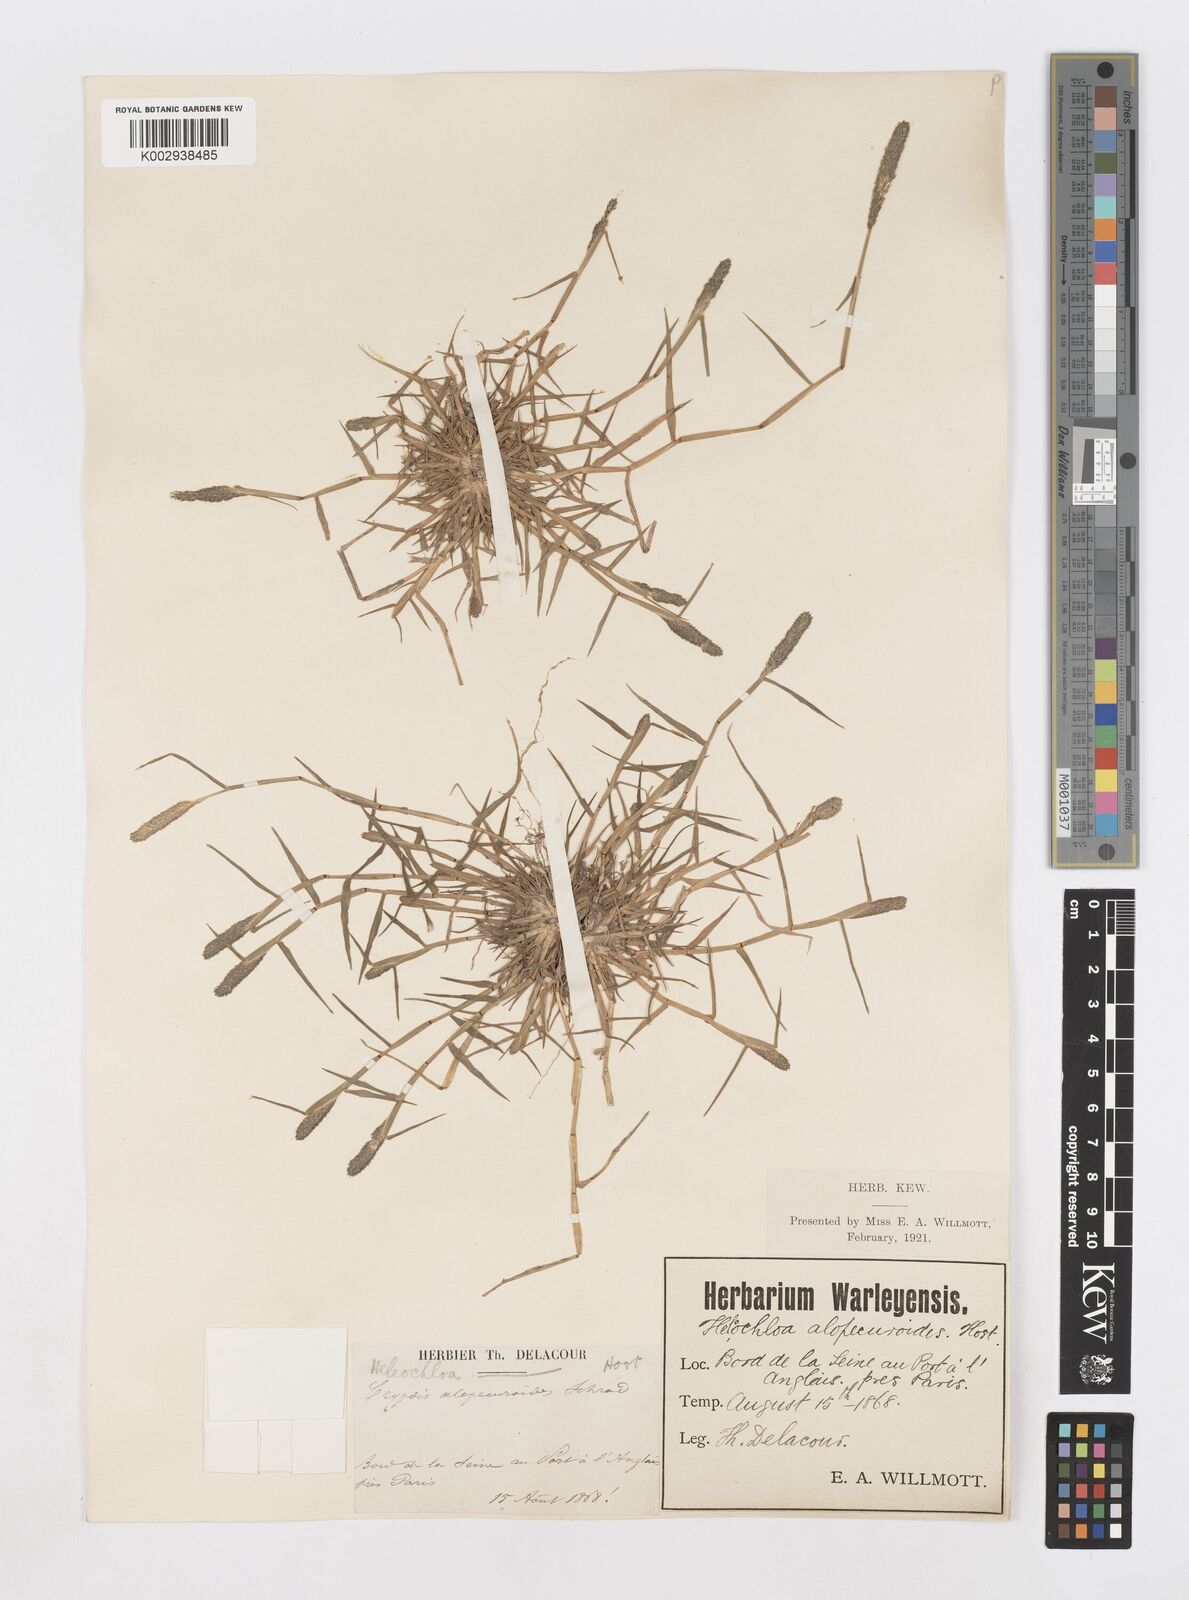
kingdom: Plantae
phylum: Tracheophyta
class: Liliopsida
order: Poales
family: Poaceae
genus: Sporobolus
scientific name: Sporobolus alopecuroides
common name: Foxtail pricklegrass
